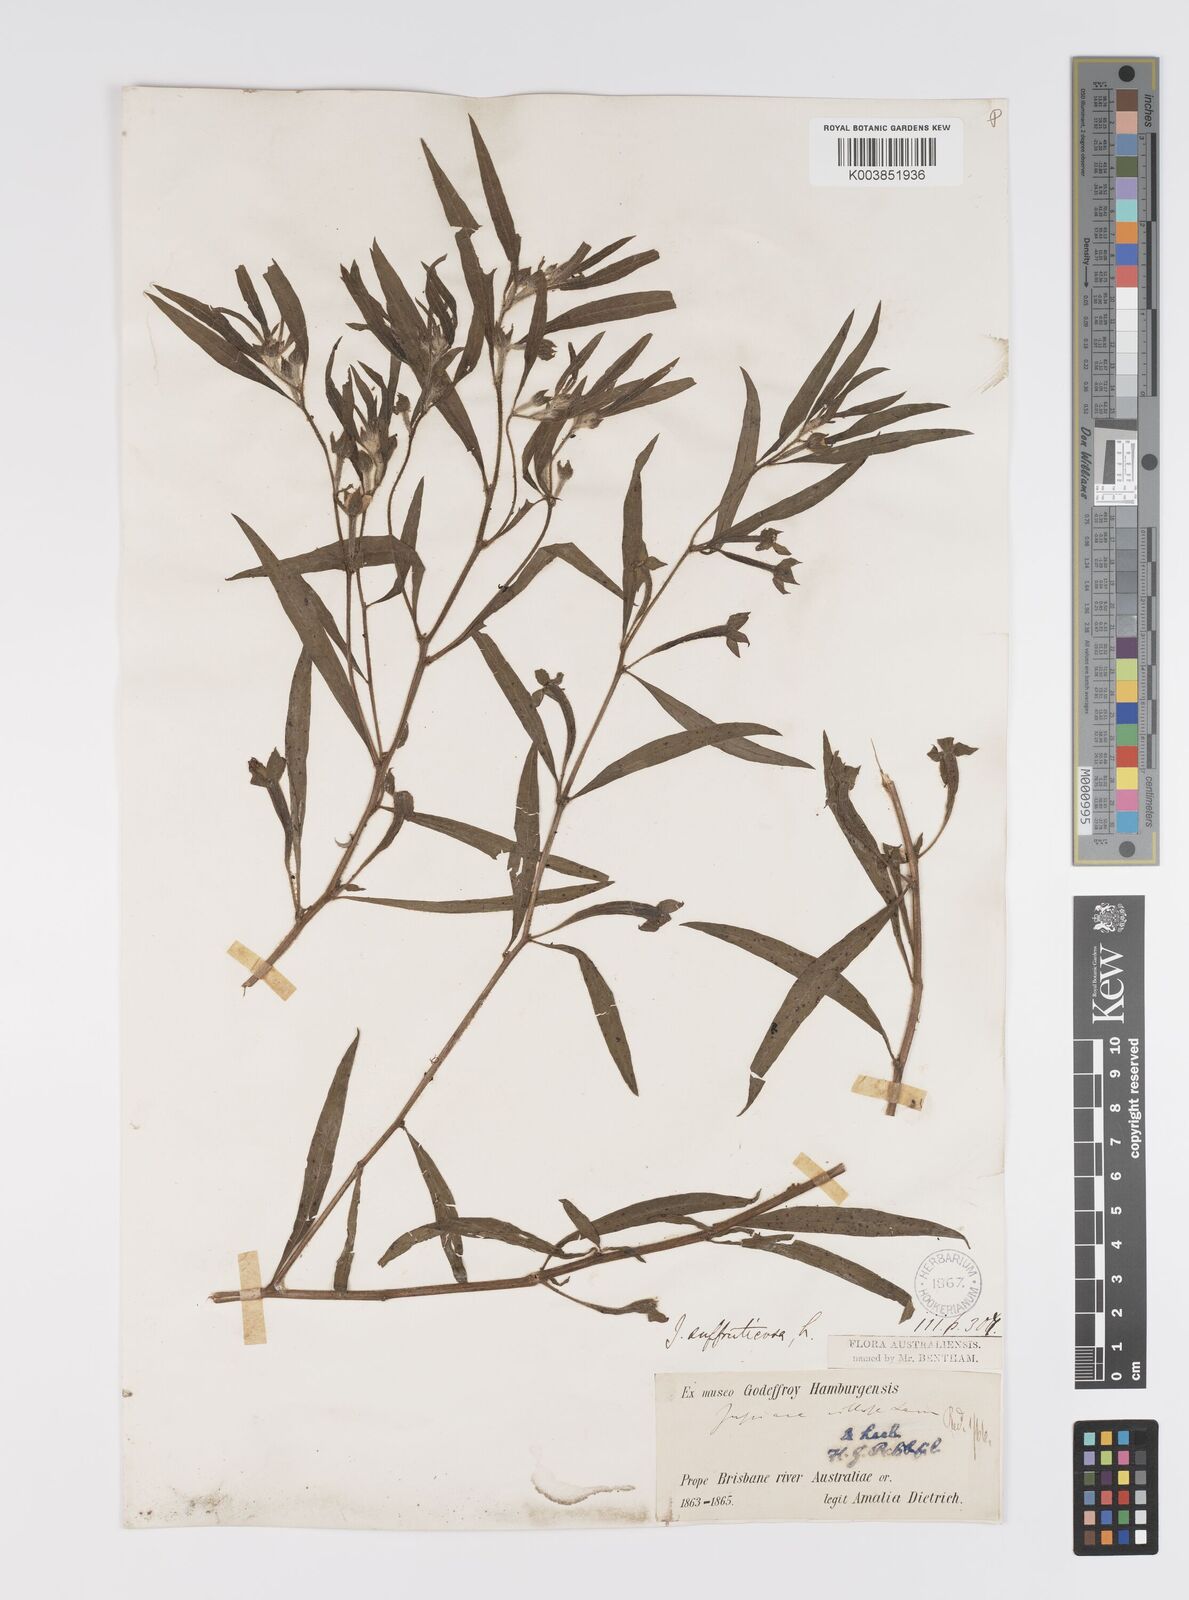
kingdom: Plantae
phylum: Tracheophyta
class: Magnoliopsida
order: Myrtales
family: Onagraceae
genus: Ludwigia
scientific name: Ludwigia octovalvis
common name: Water-primrose
